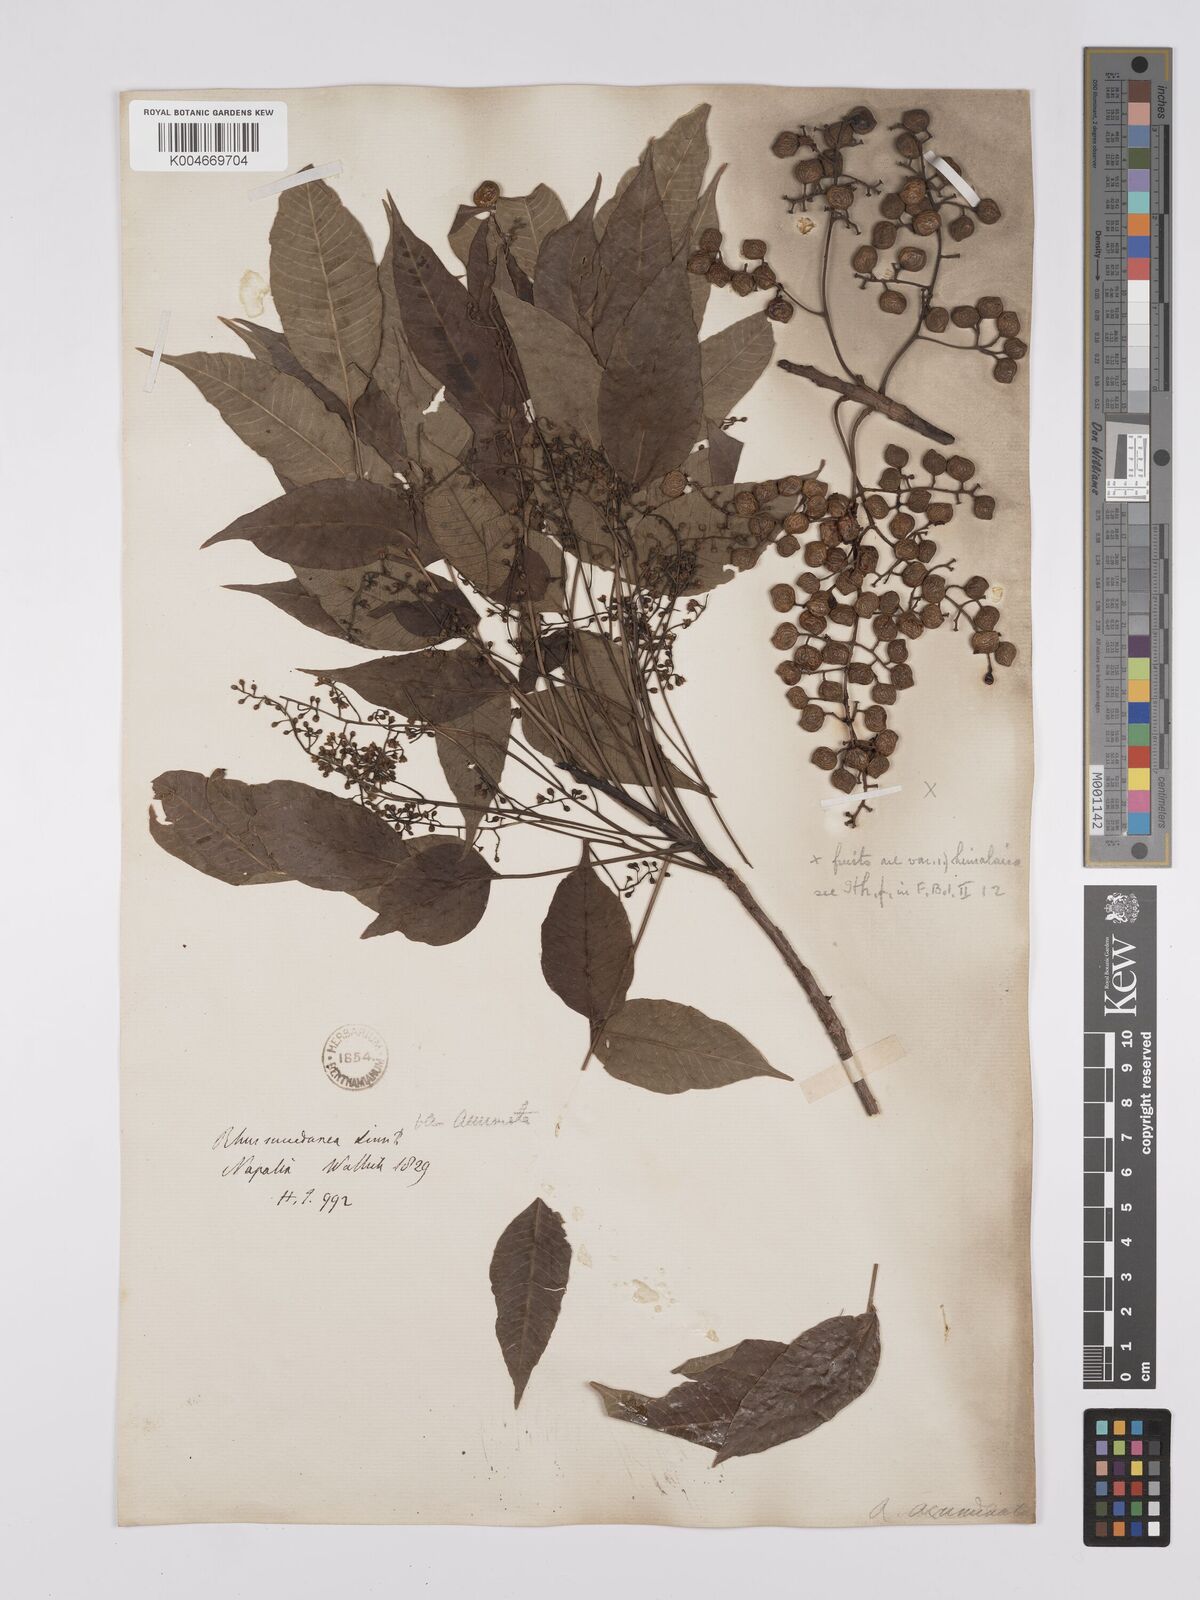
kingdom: Plantae
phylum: Tracheophyta
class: Magnoliopsida
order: Sapindales
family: Anacardiaceae
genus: Toxicodendron
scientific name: Toxicodendron succedaneum
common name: Wax tree
